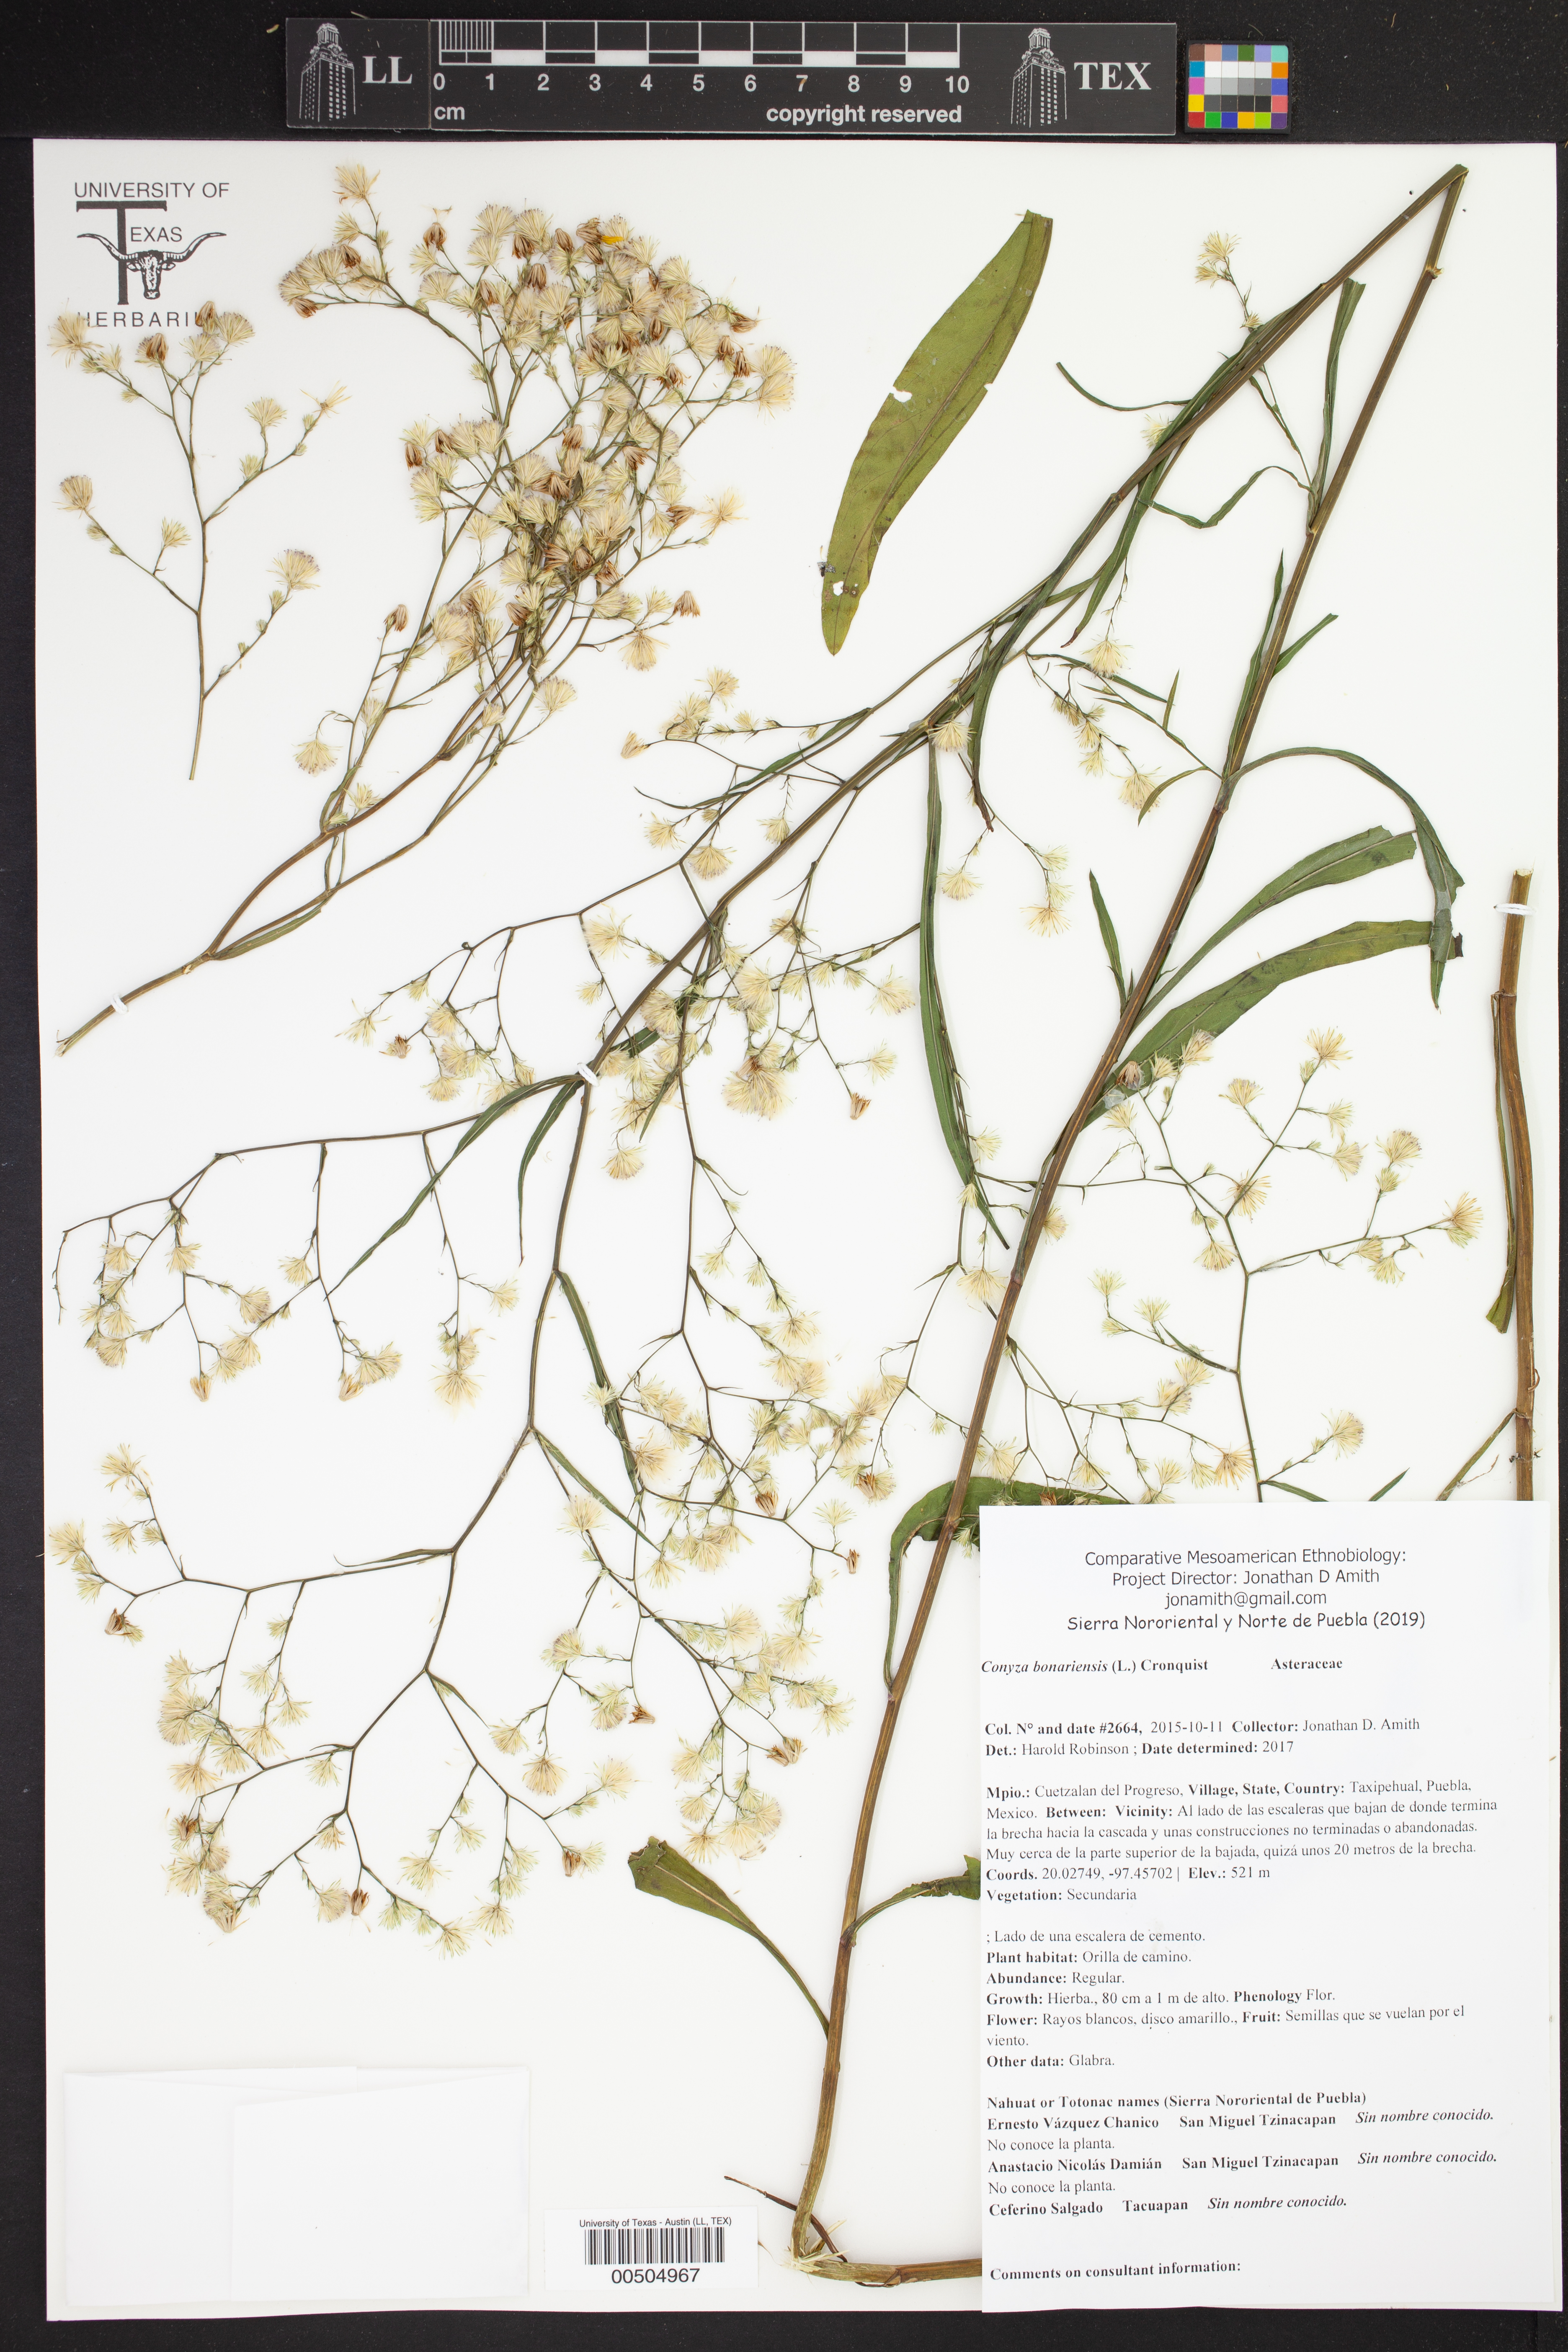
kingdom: Plantae
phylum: Tracheophyta
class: Magnoliopsida
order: Asterales
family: Asteraceae
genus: Symphyotrichum
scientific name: Symphyotrichum expansum
